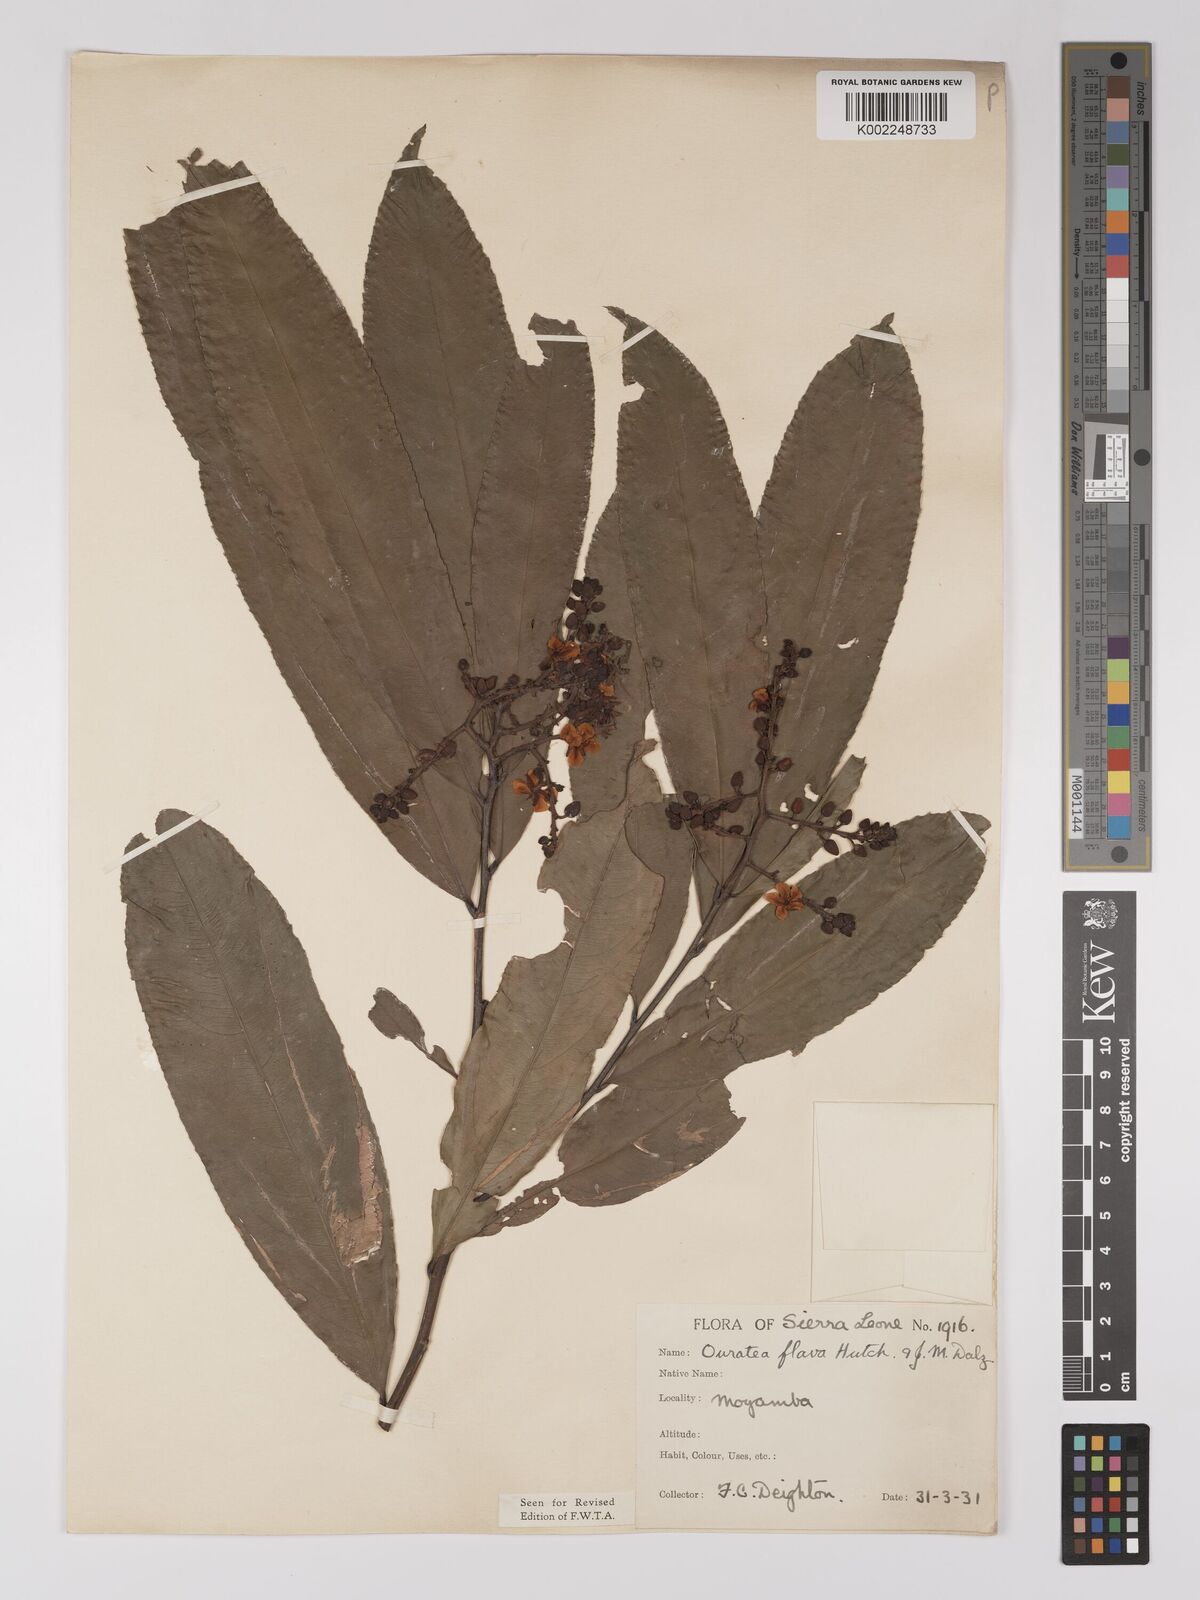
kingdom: Plantae
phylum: Tracheophyta
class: Magnoliopsida
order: Malpighiales
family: Ochnaceae
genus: Campylospermum
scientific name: Campylospermum flavum
